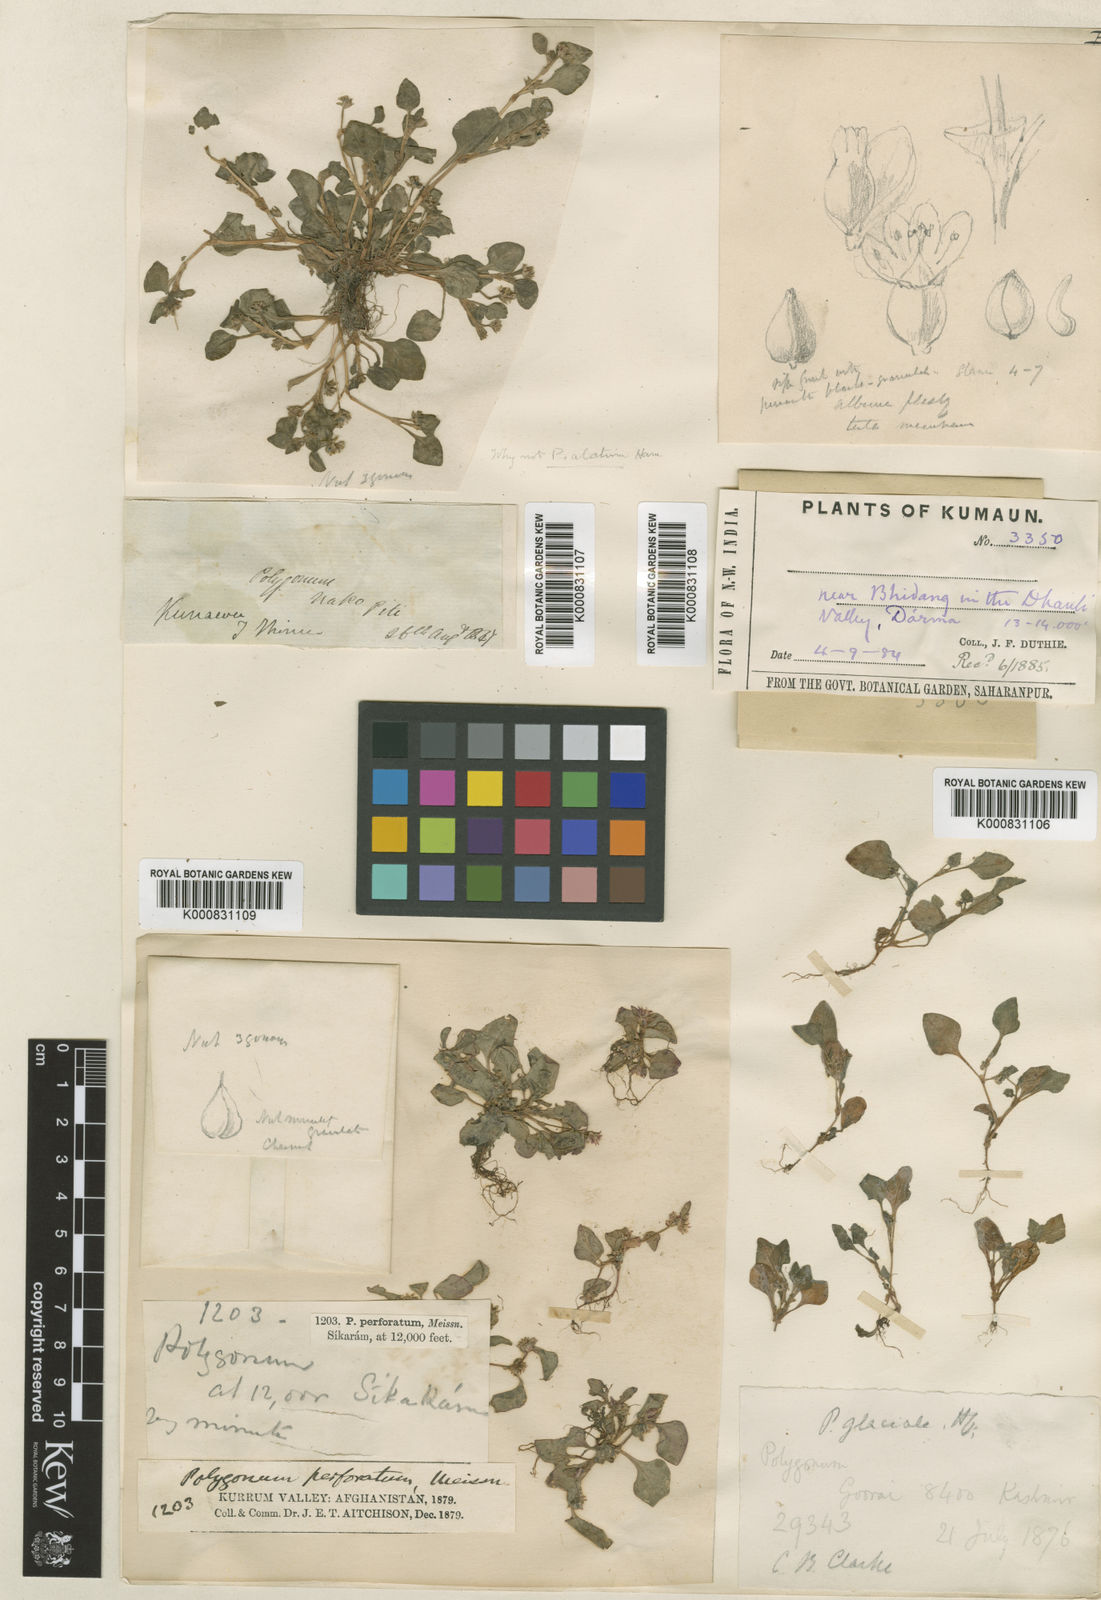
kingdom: Plantae
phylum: Tracheophyta
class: Magnoliopsida
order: Caryophyllales
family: Polygonaceae
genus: Persicaria
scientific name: Persicaria glacialis
